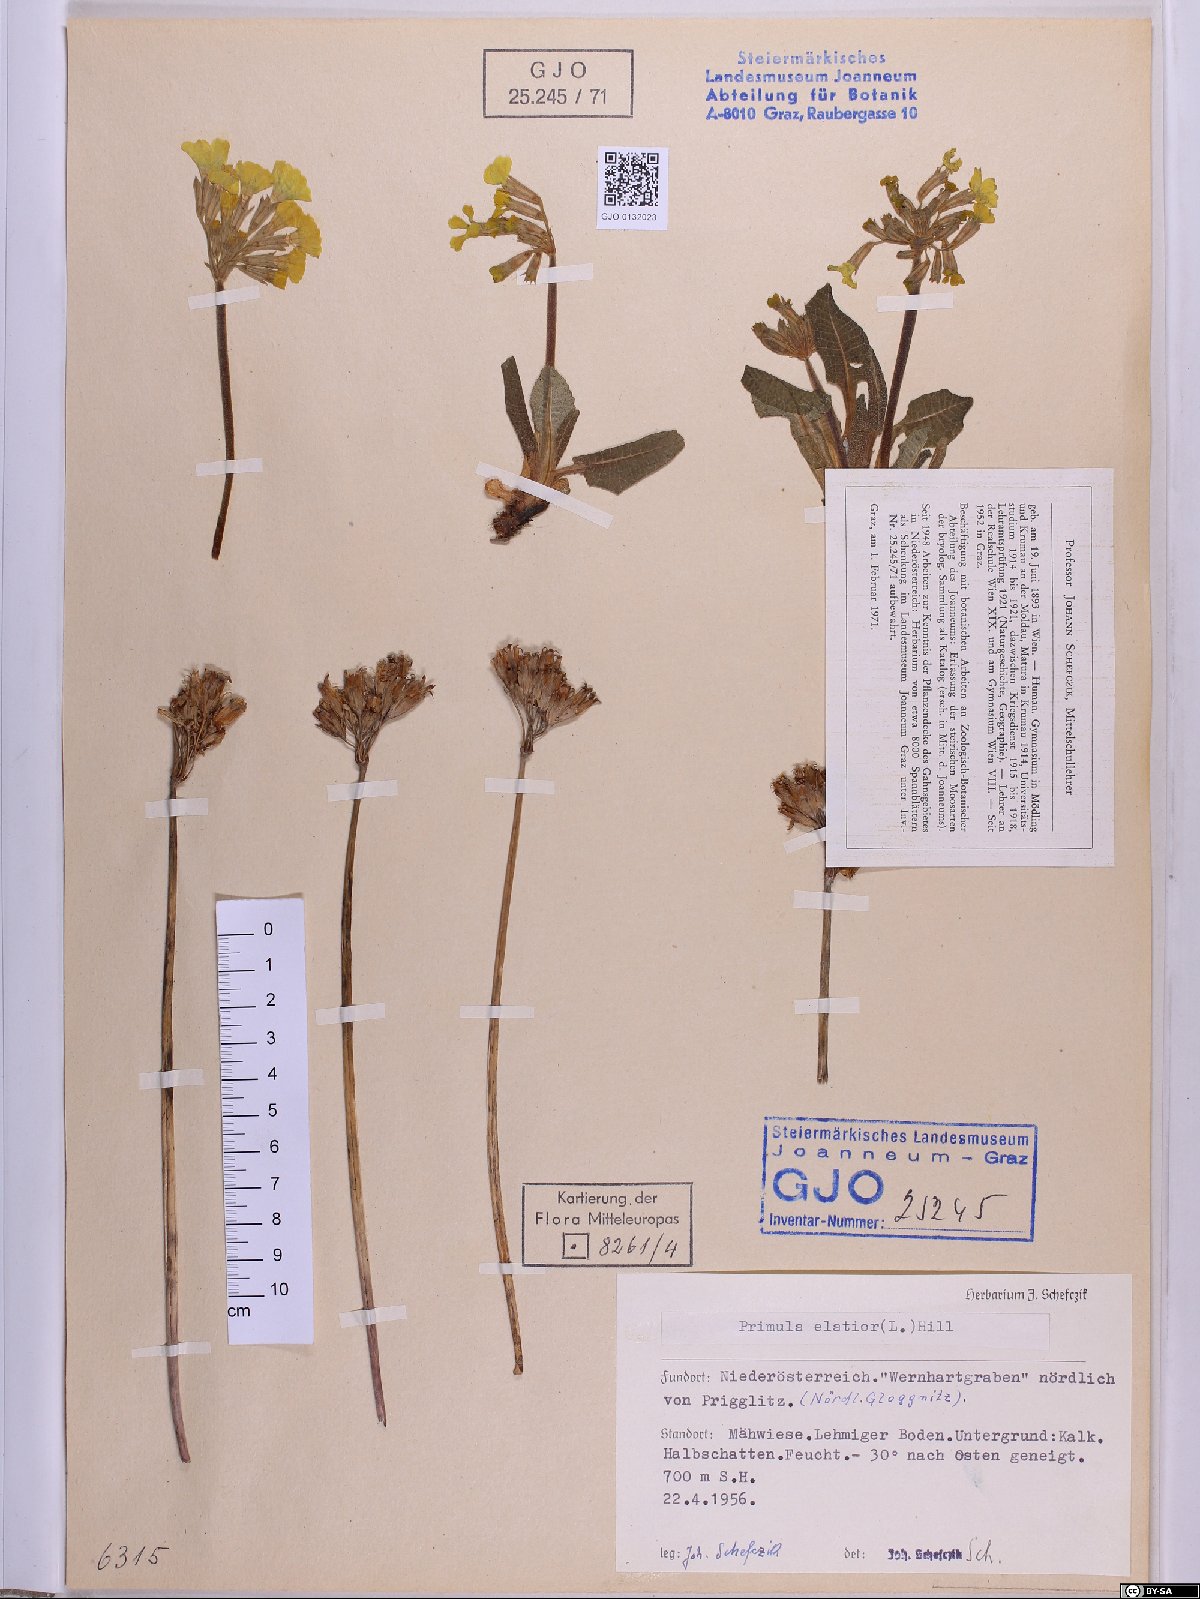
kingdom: Plantae
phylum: Tracheophyta
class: Magnoliopsida
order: Ericales
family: Primulaceae
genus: Primula
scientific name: Primula elatior
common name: Oxlip
